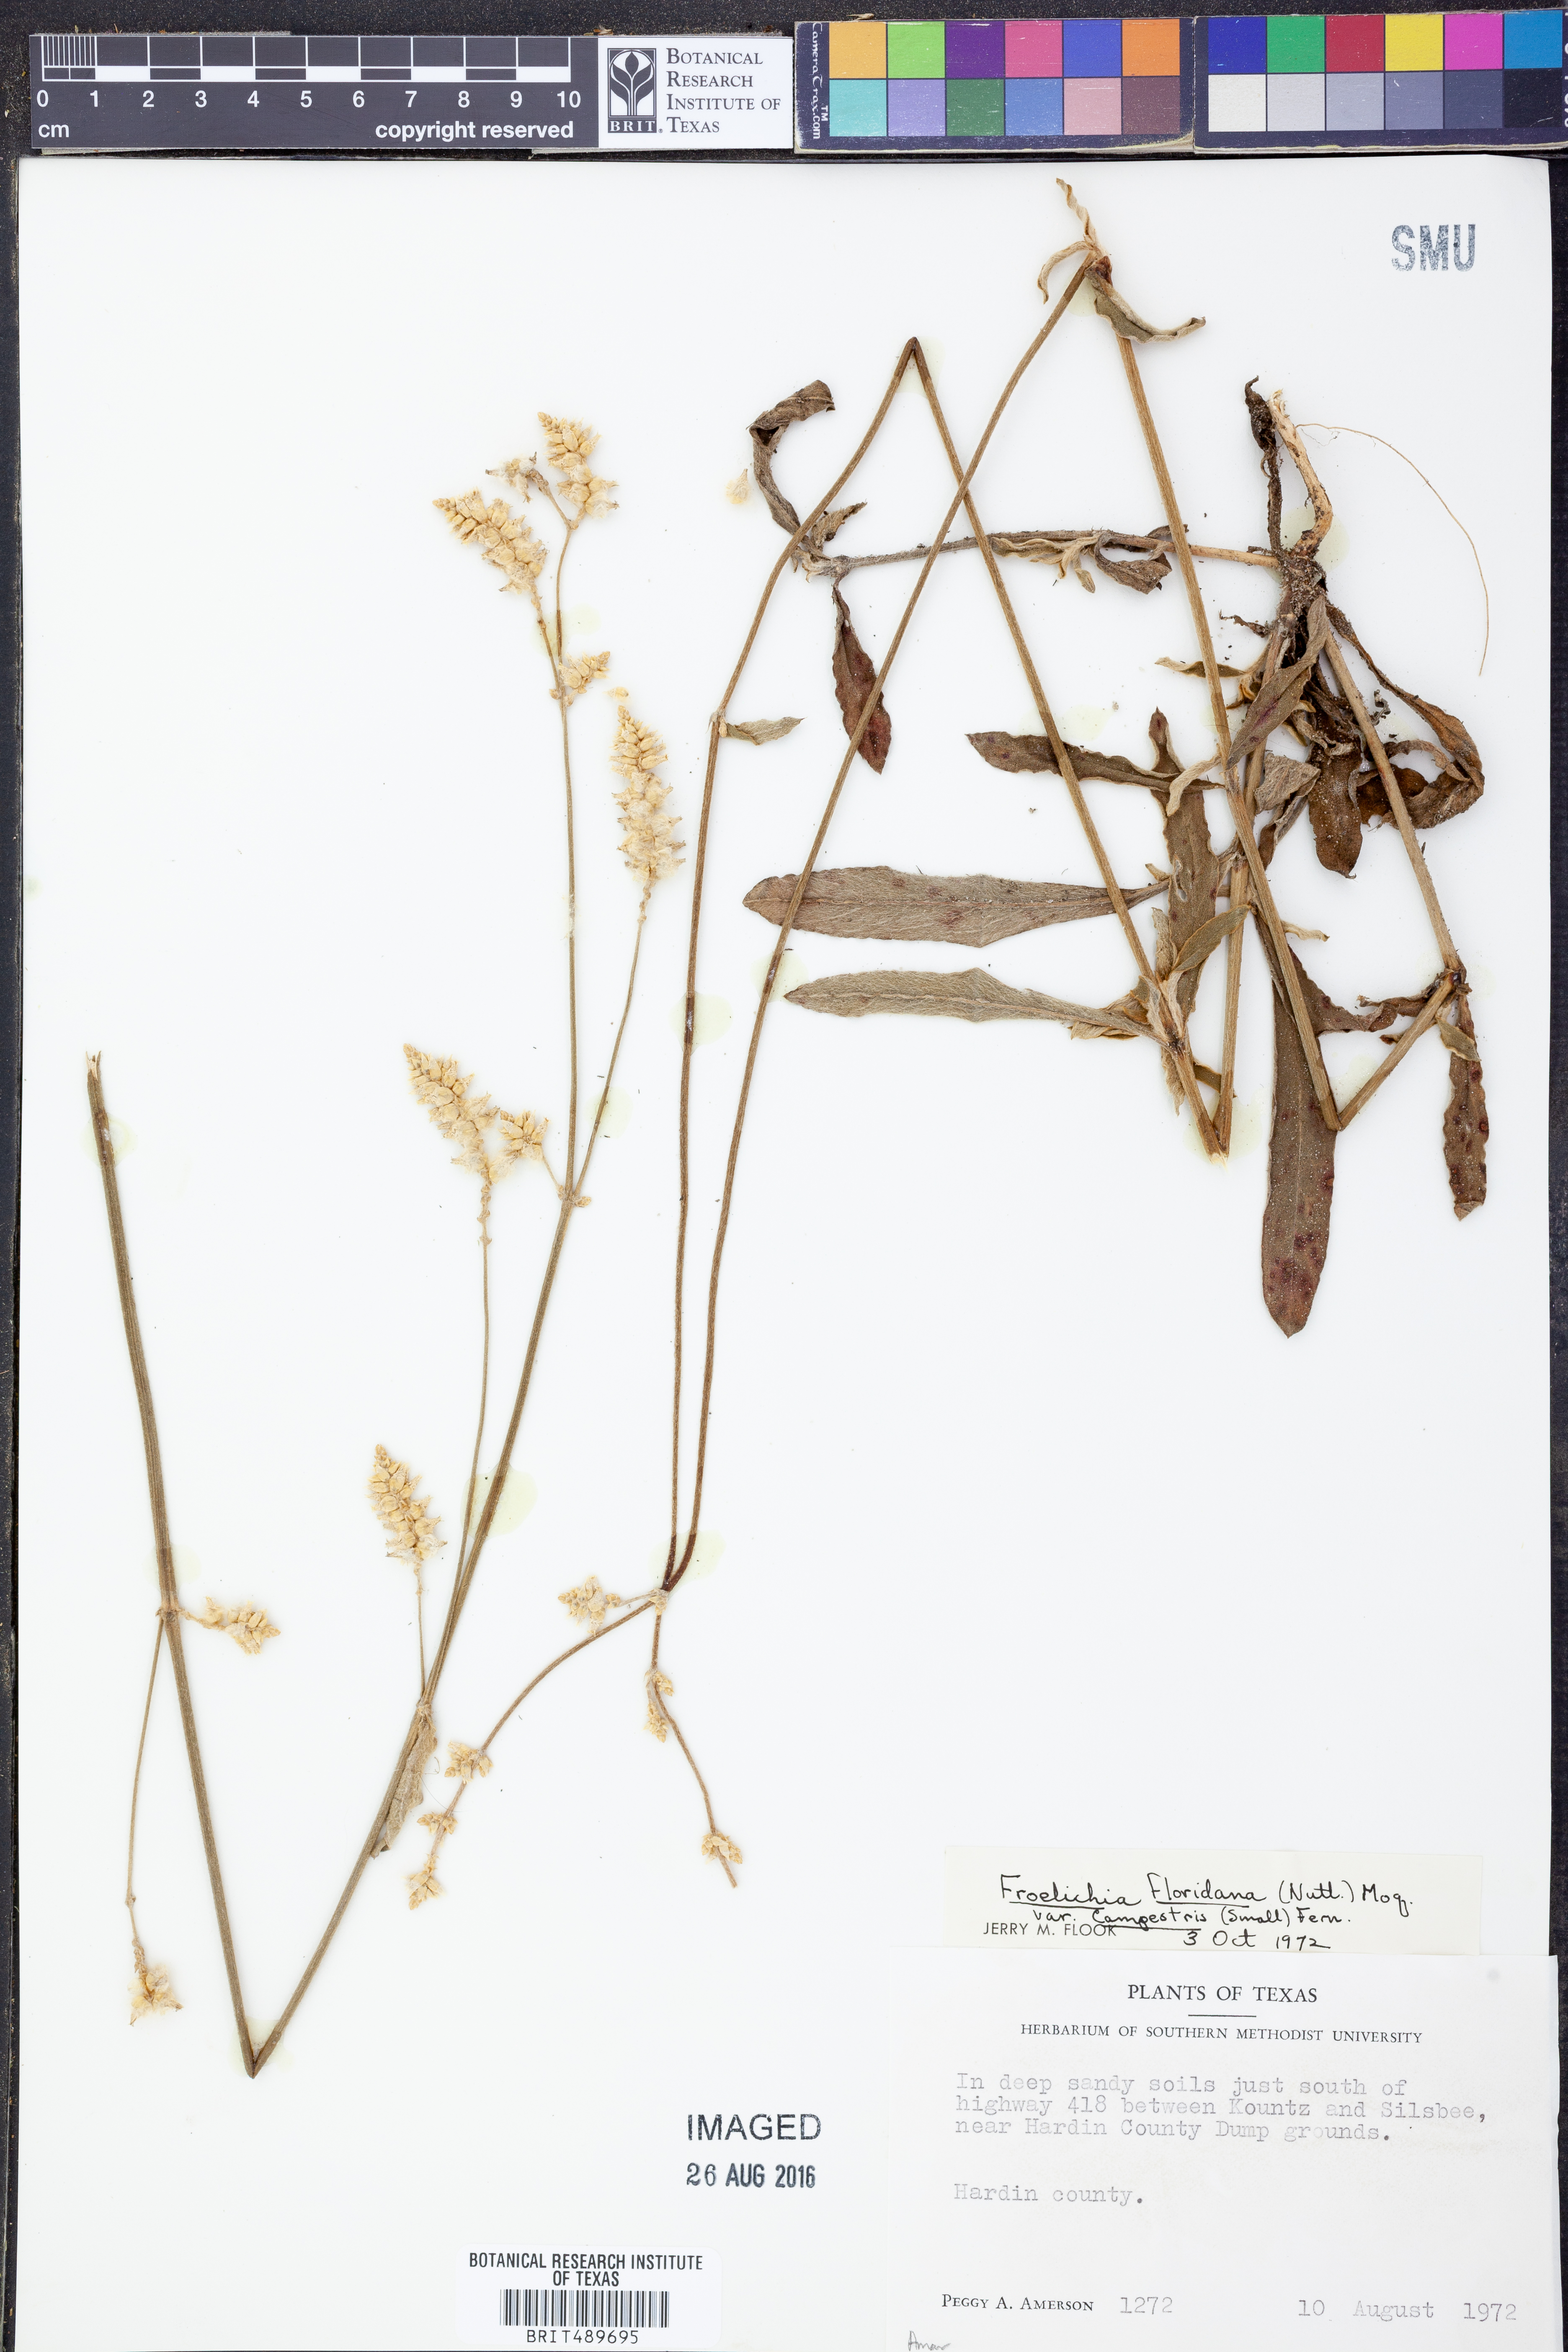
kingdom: Plantae
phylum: Tracheophyta
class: Magnoliopsida
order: Caryophyllales
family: Amaranthaceae
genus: Froelichia
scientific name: Froelichia floridana
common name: Florida snake-cotton
